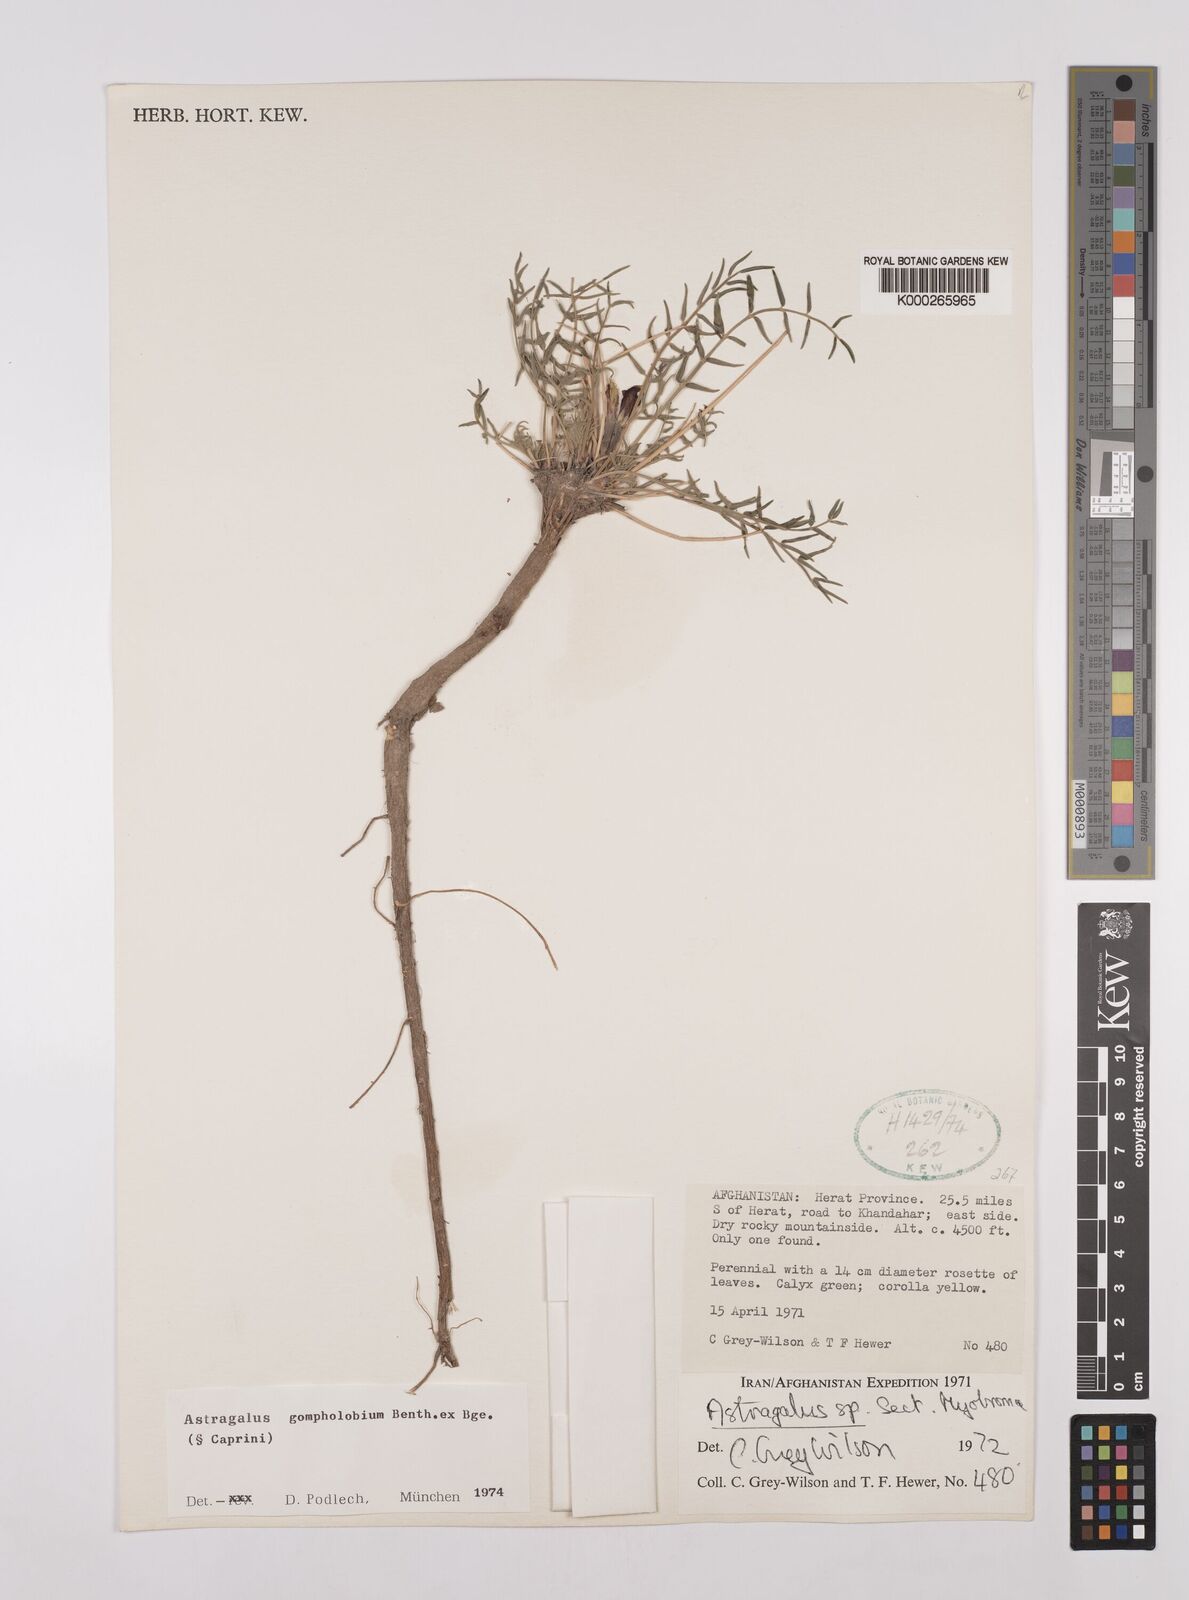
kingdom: Plantae
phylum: Tracheophyta
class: Magnoliopsida
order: Fabales
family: Fabaceae
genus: Astragalus
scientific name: Astragalus gompholobium
